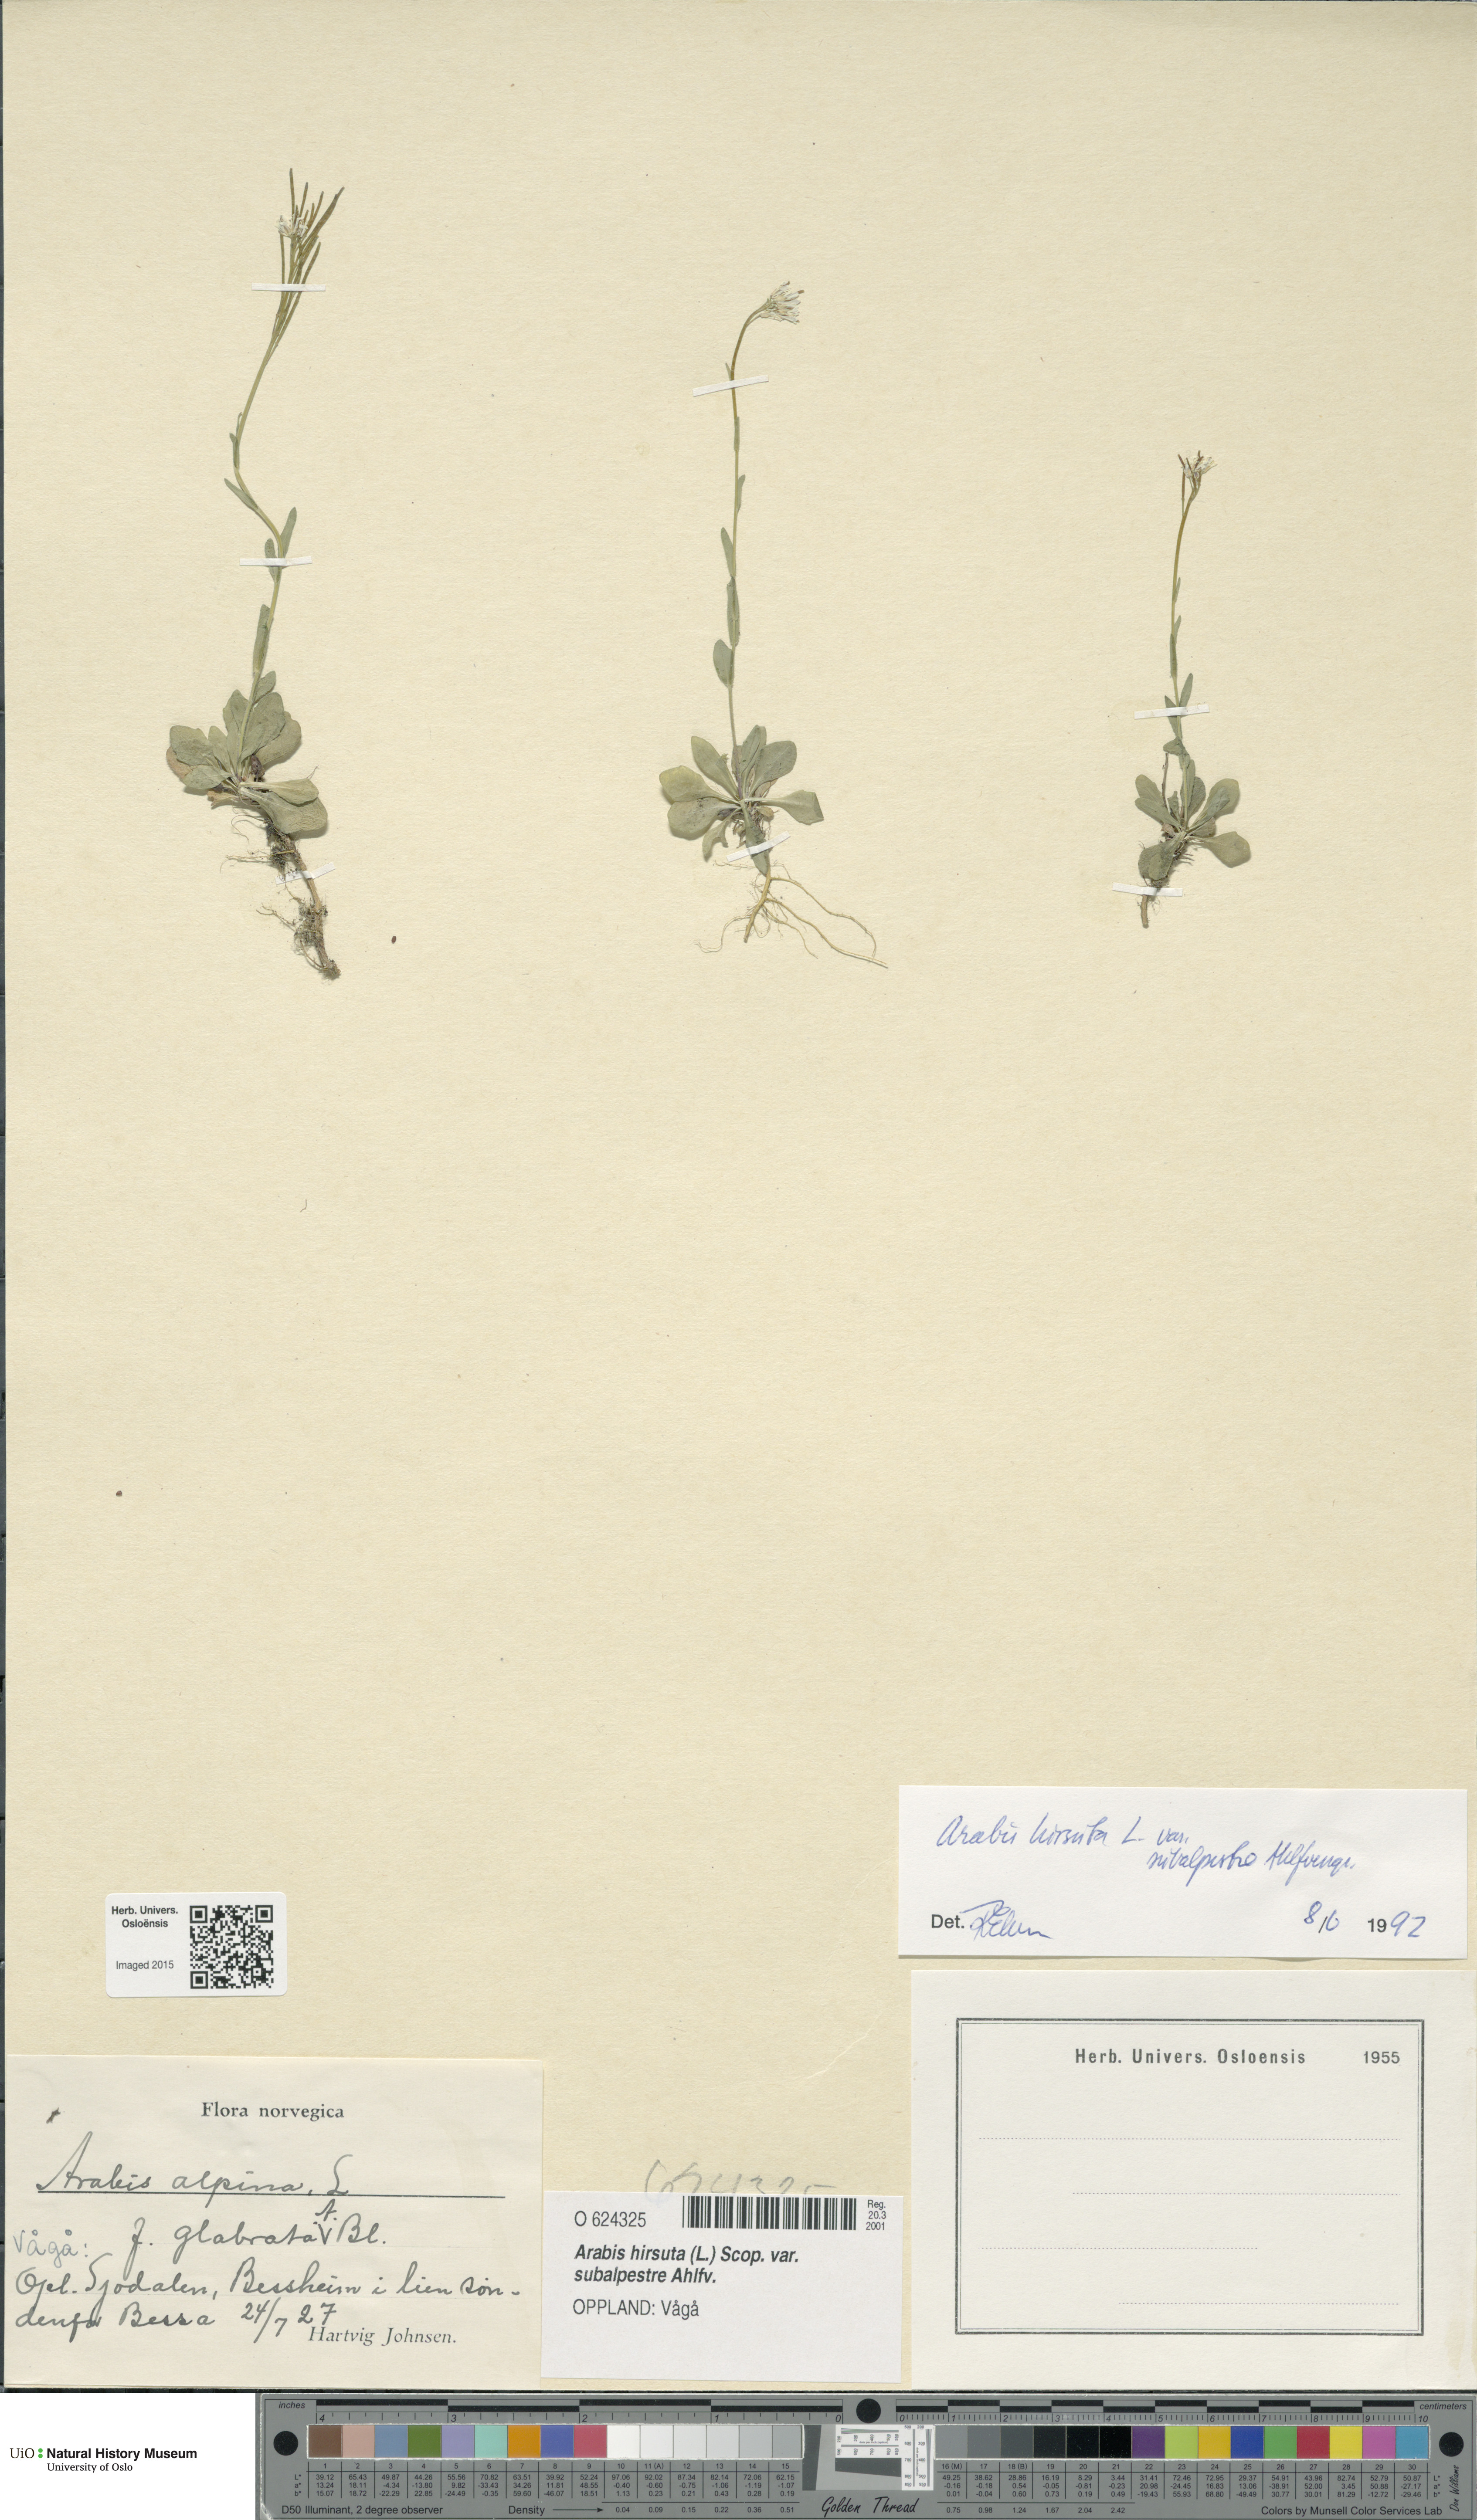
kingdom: Plantae
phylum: Tracheophyta
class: Magnoliopsida
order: Brassicales
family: Brassicaceae
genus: Arabis
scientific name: Arabis hirsuta
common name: Hairy rock-cress
